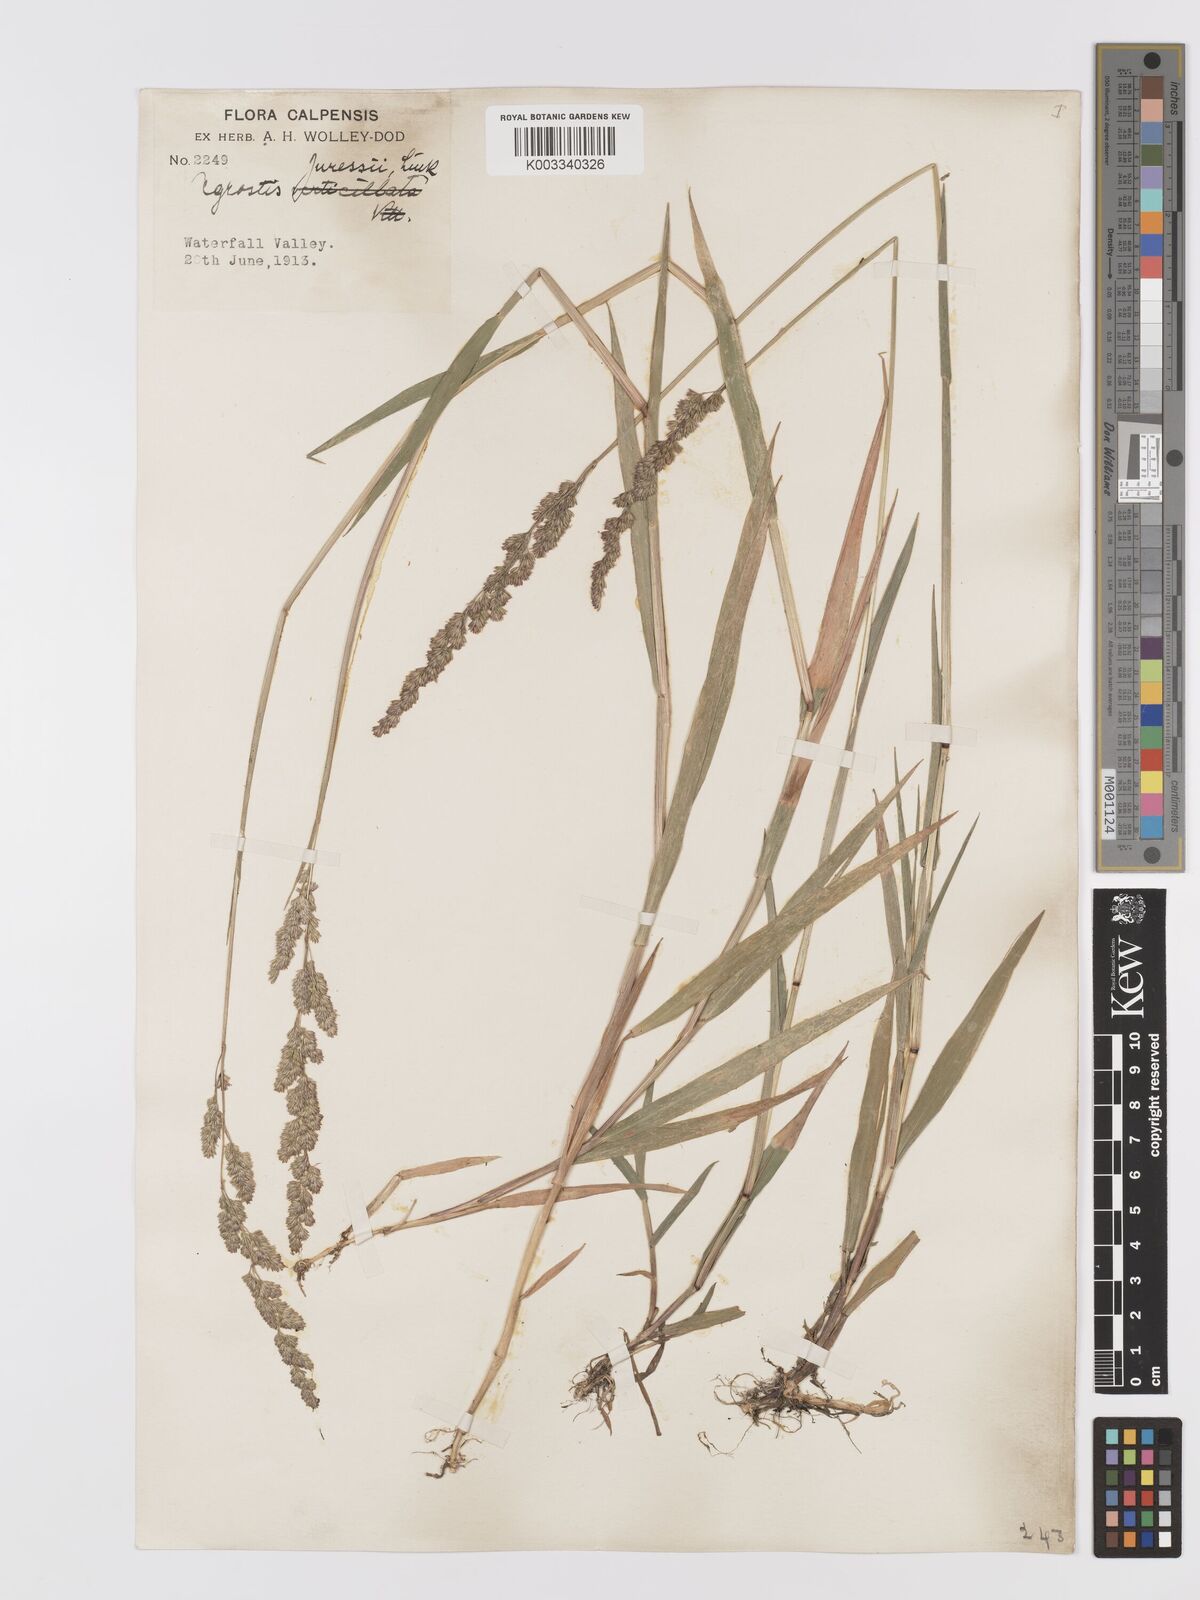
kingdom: Plantae
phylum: Tracheophyta
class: Liliopsida
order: Poales
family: Poaceae
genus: Agrostis
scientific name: Agrostis juressi
